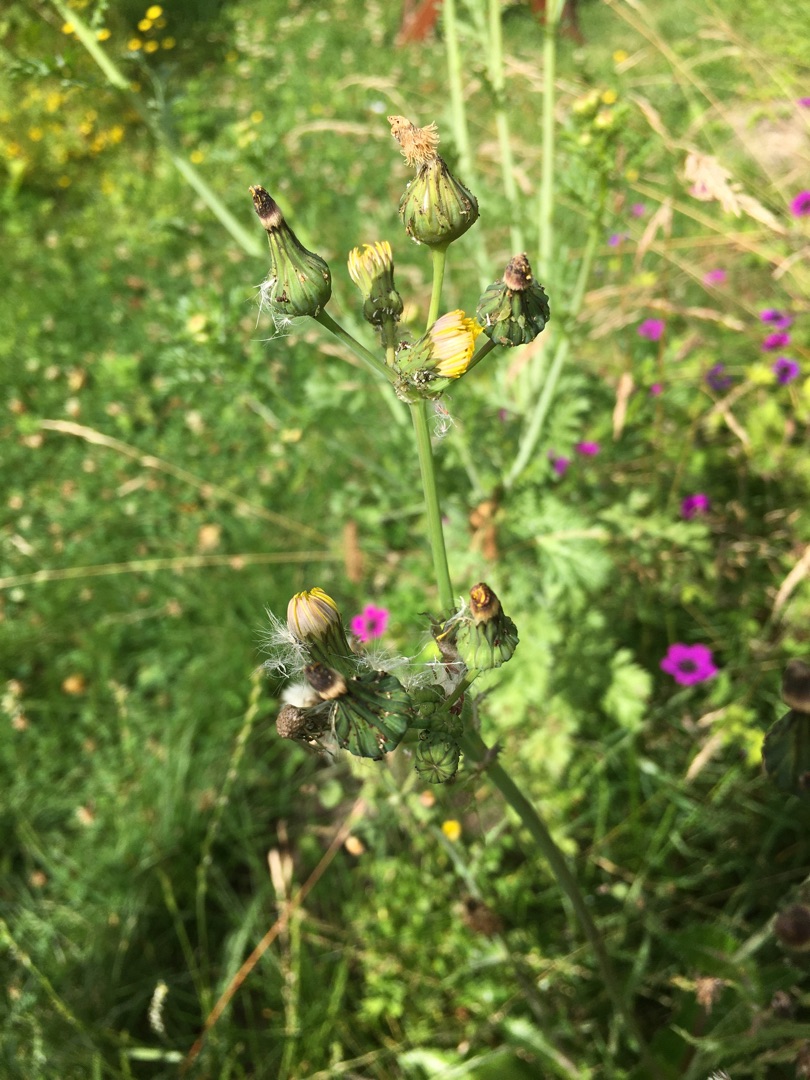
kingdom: Plantae
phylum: Tracheophyta
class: Magnoliopsida
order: Asterales
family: Asteraceae
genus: Sonchus
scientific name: Sonchus asper
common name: Ru svinemælk
